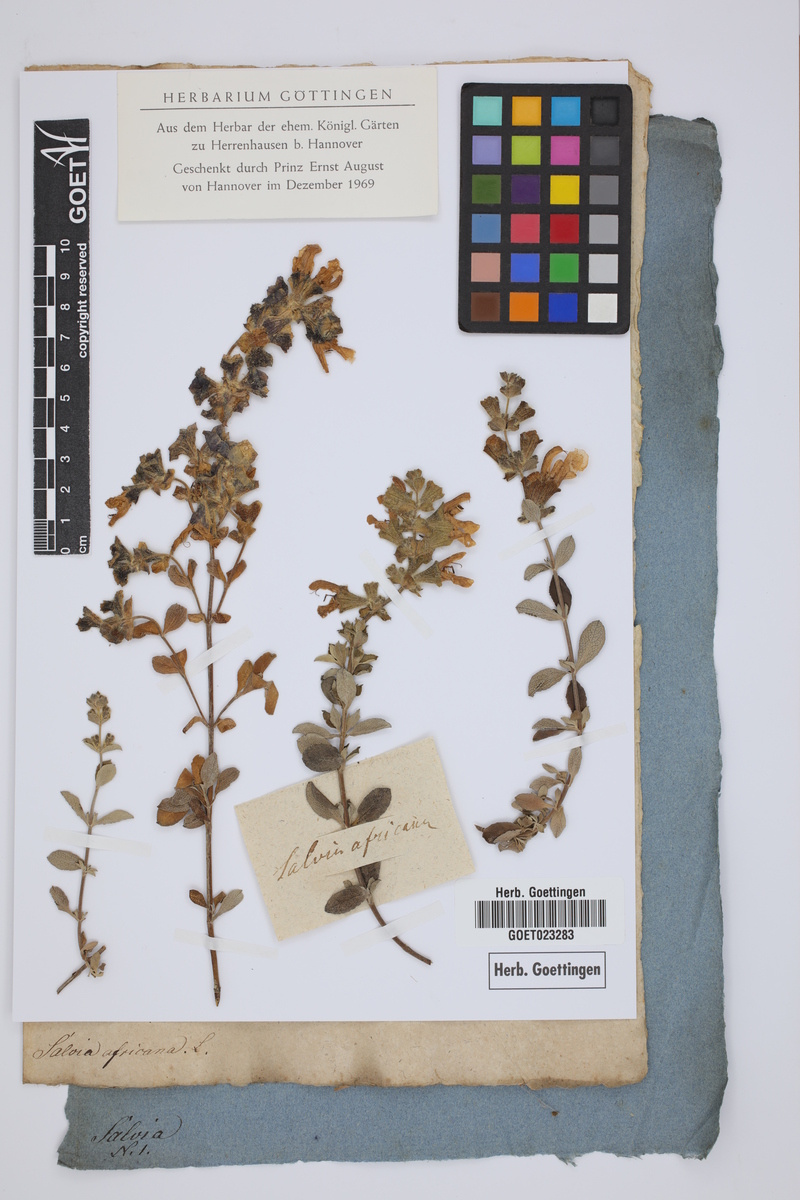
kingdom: Plantae
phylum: Tracheophyta
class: Magnoliopsida
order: Lamiales
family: Lamiaceae
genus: Salvia
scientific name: Salvia africana
